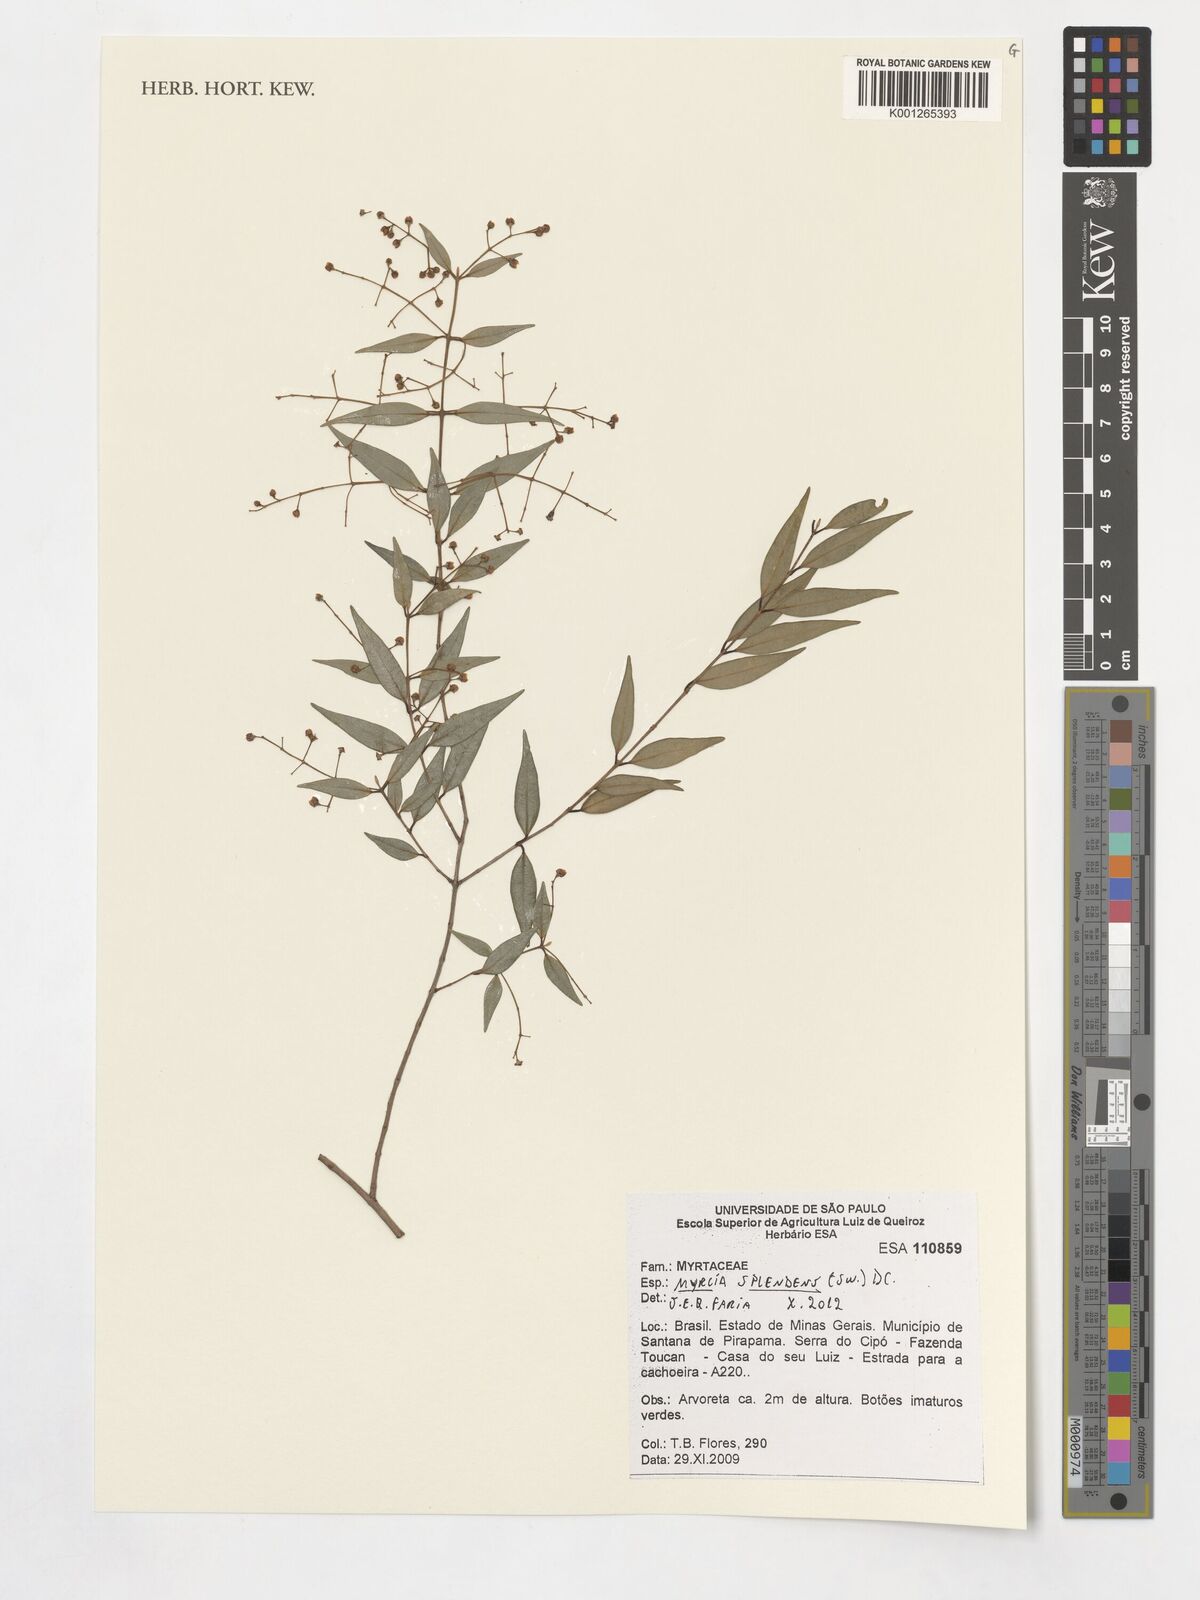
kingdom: Plantae
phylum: Tracheophyta
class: Magnoliopsida
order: Myrtales
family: Myrtaceae
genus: Myrcia
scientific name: Myrcia splendens
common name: Surinam cherry
